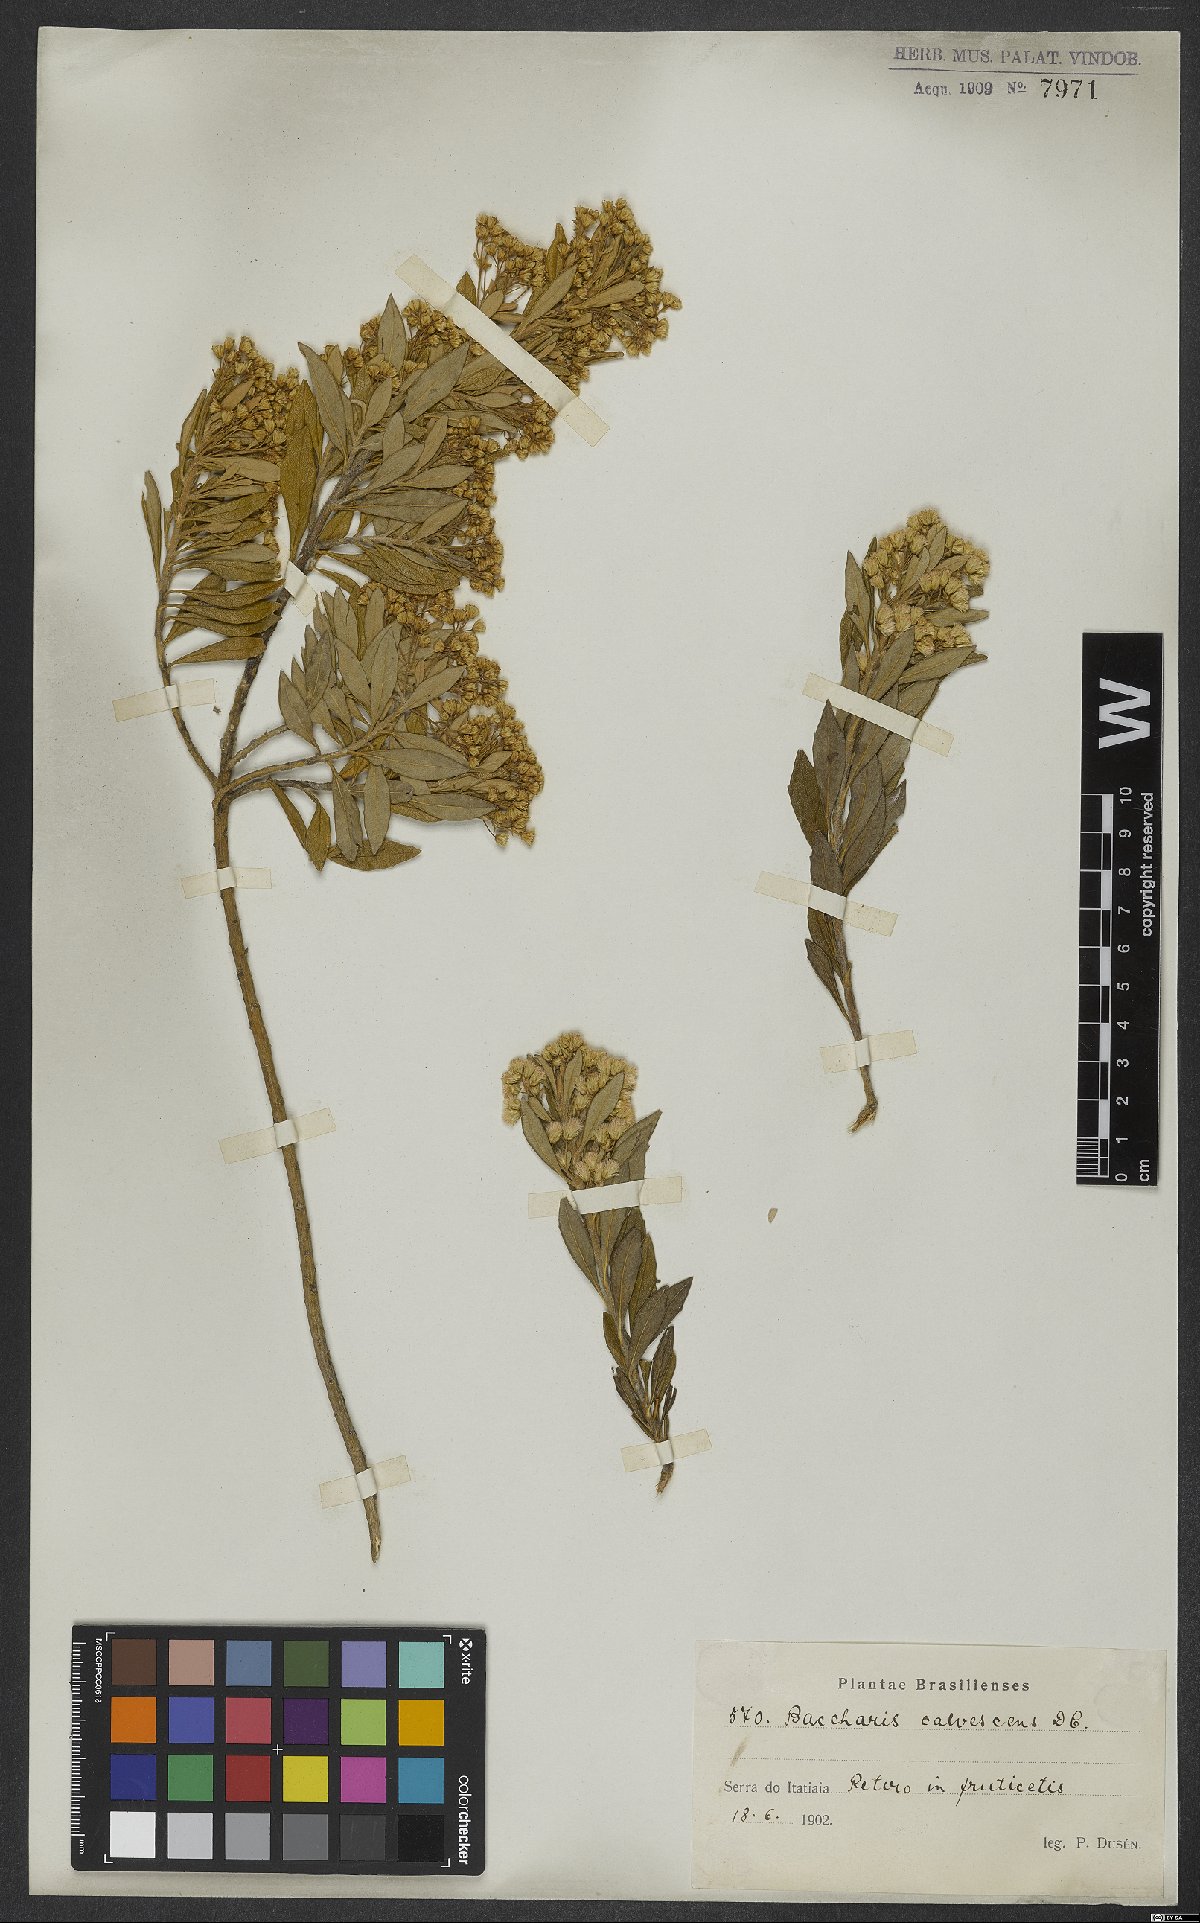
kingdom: Plantae
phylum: Tracheophyta
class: Magnoliopsida
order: Asterales
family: Asteraceae
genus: Baccharis
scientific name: Baccharis calvescens
